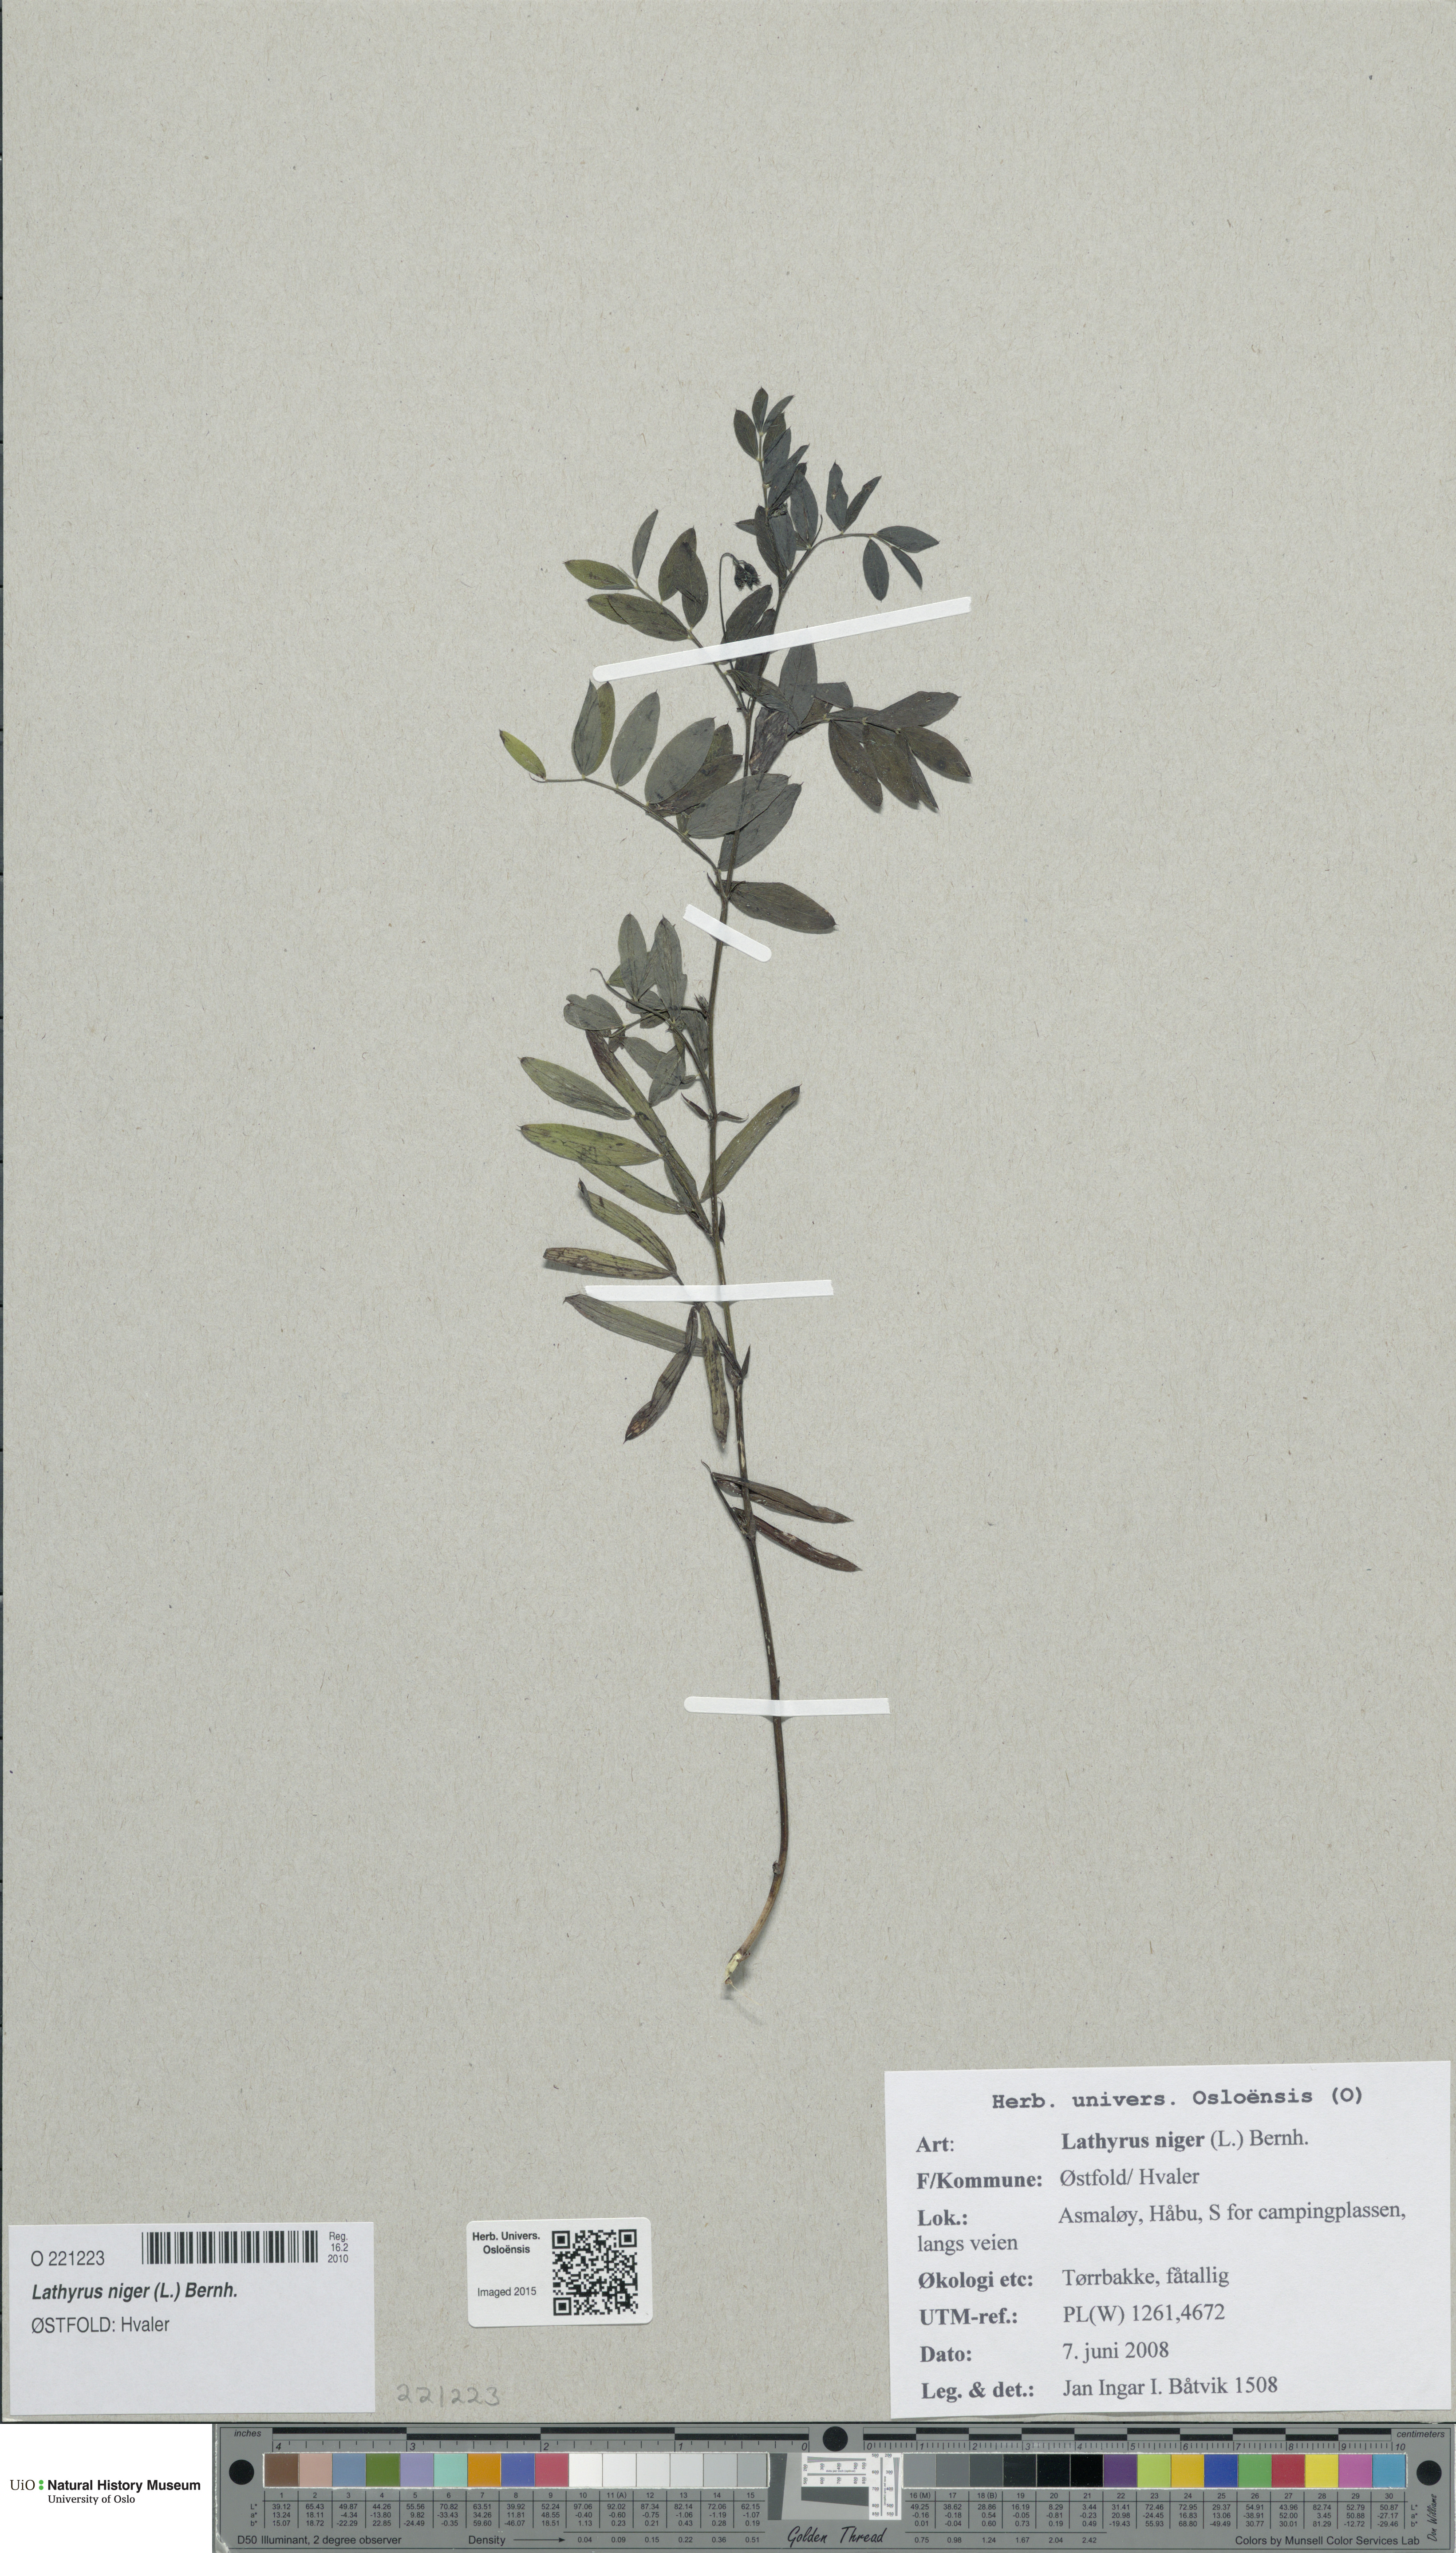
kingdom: Plantae
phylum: Tracheophyta
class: Magnoliopsida
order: Fabales
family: Fabaceae
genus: Lathyrus
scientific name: Lathyrus niger
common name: Black pea
